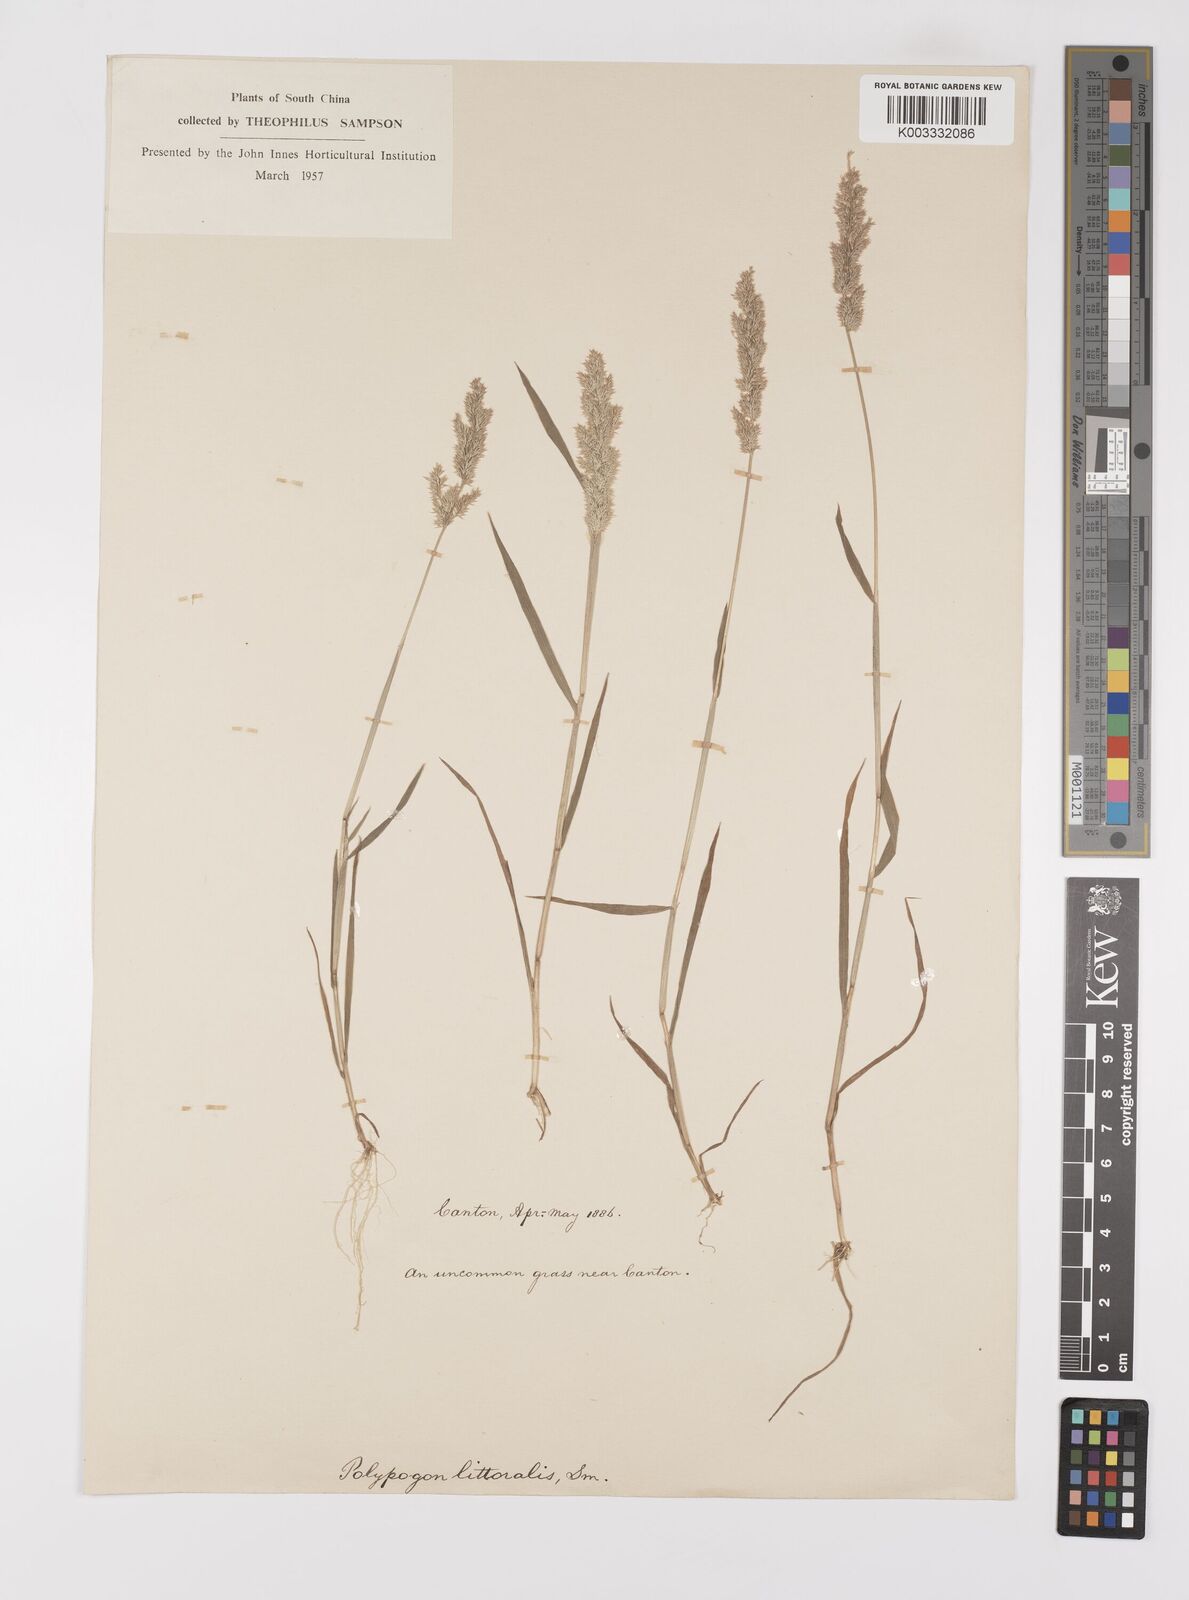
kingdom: Plantae
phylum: Tracheophyta
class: Liliopsida
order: Poales
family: Poaceae
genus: Polypogon
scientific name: Polypogon fugax
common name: Asia minor bluegrass
